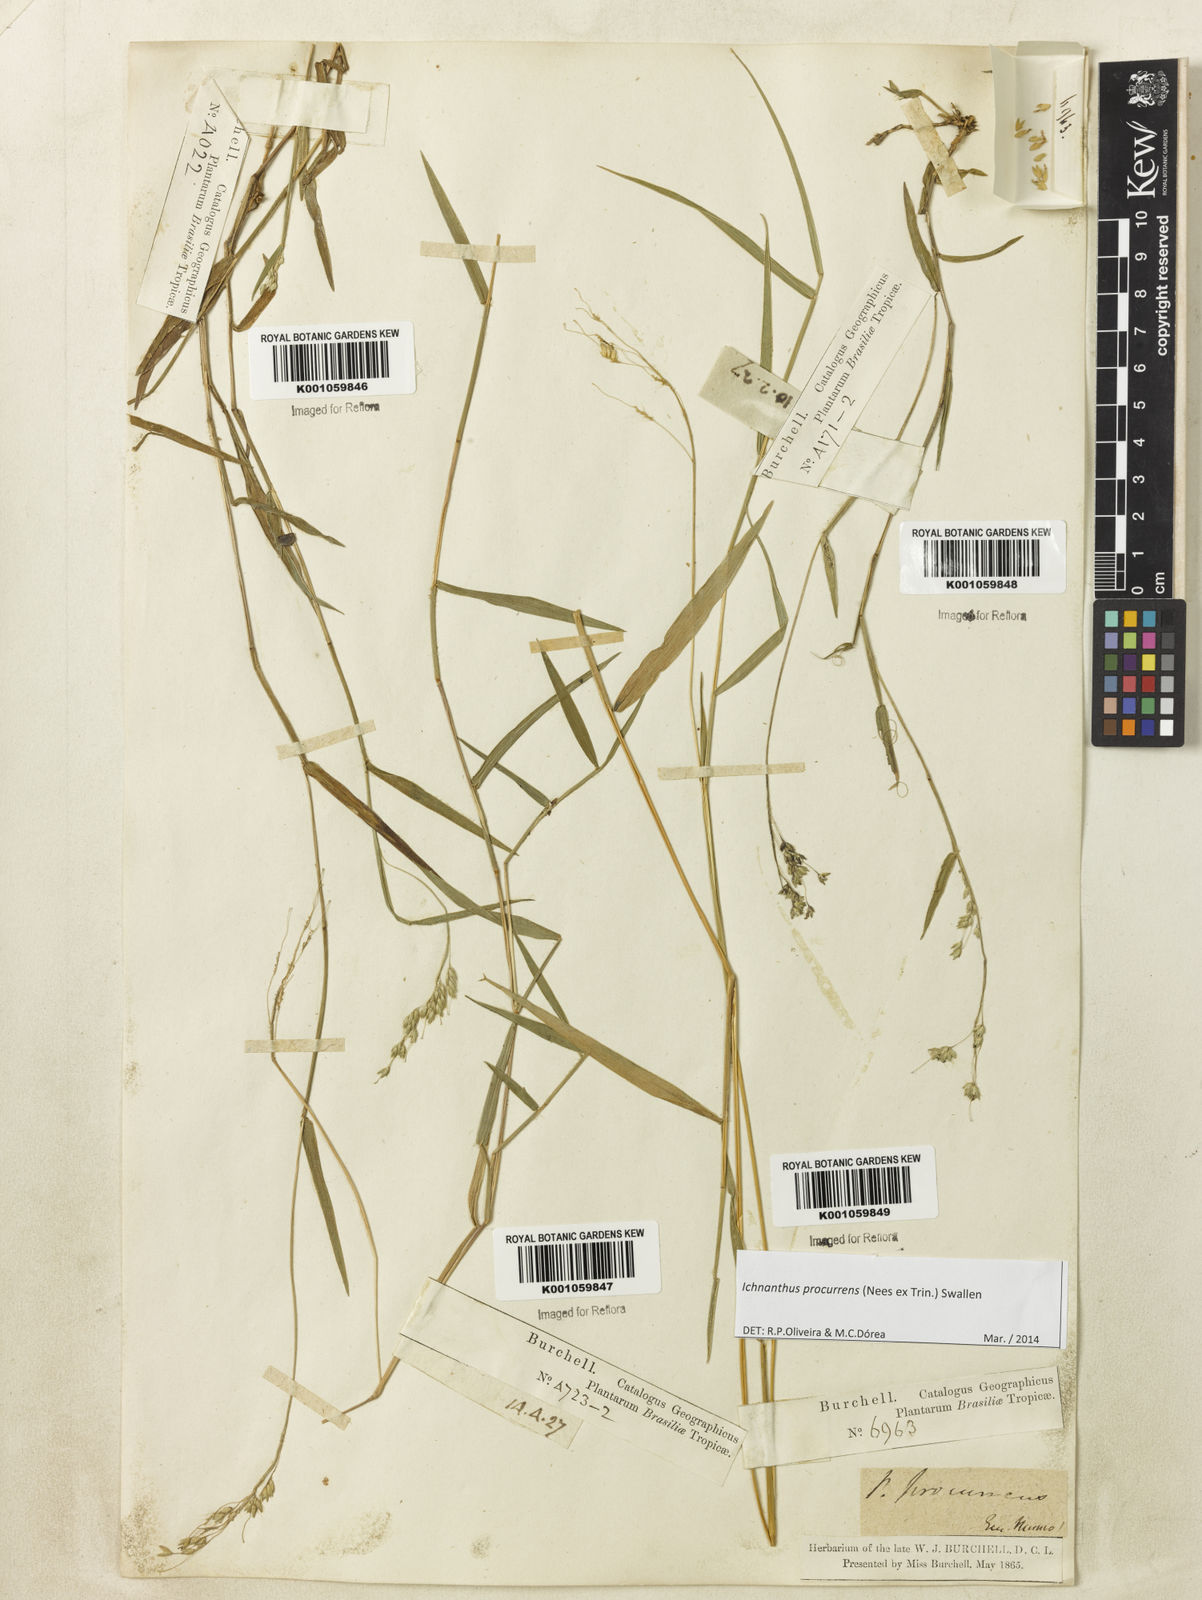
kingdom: Plantae
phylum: Tracheophyta
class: Liliopsida
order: Poales
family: Poaceae
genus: Oedochloa
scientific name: Oedochloa procurrens
